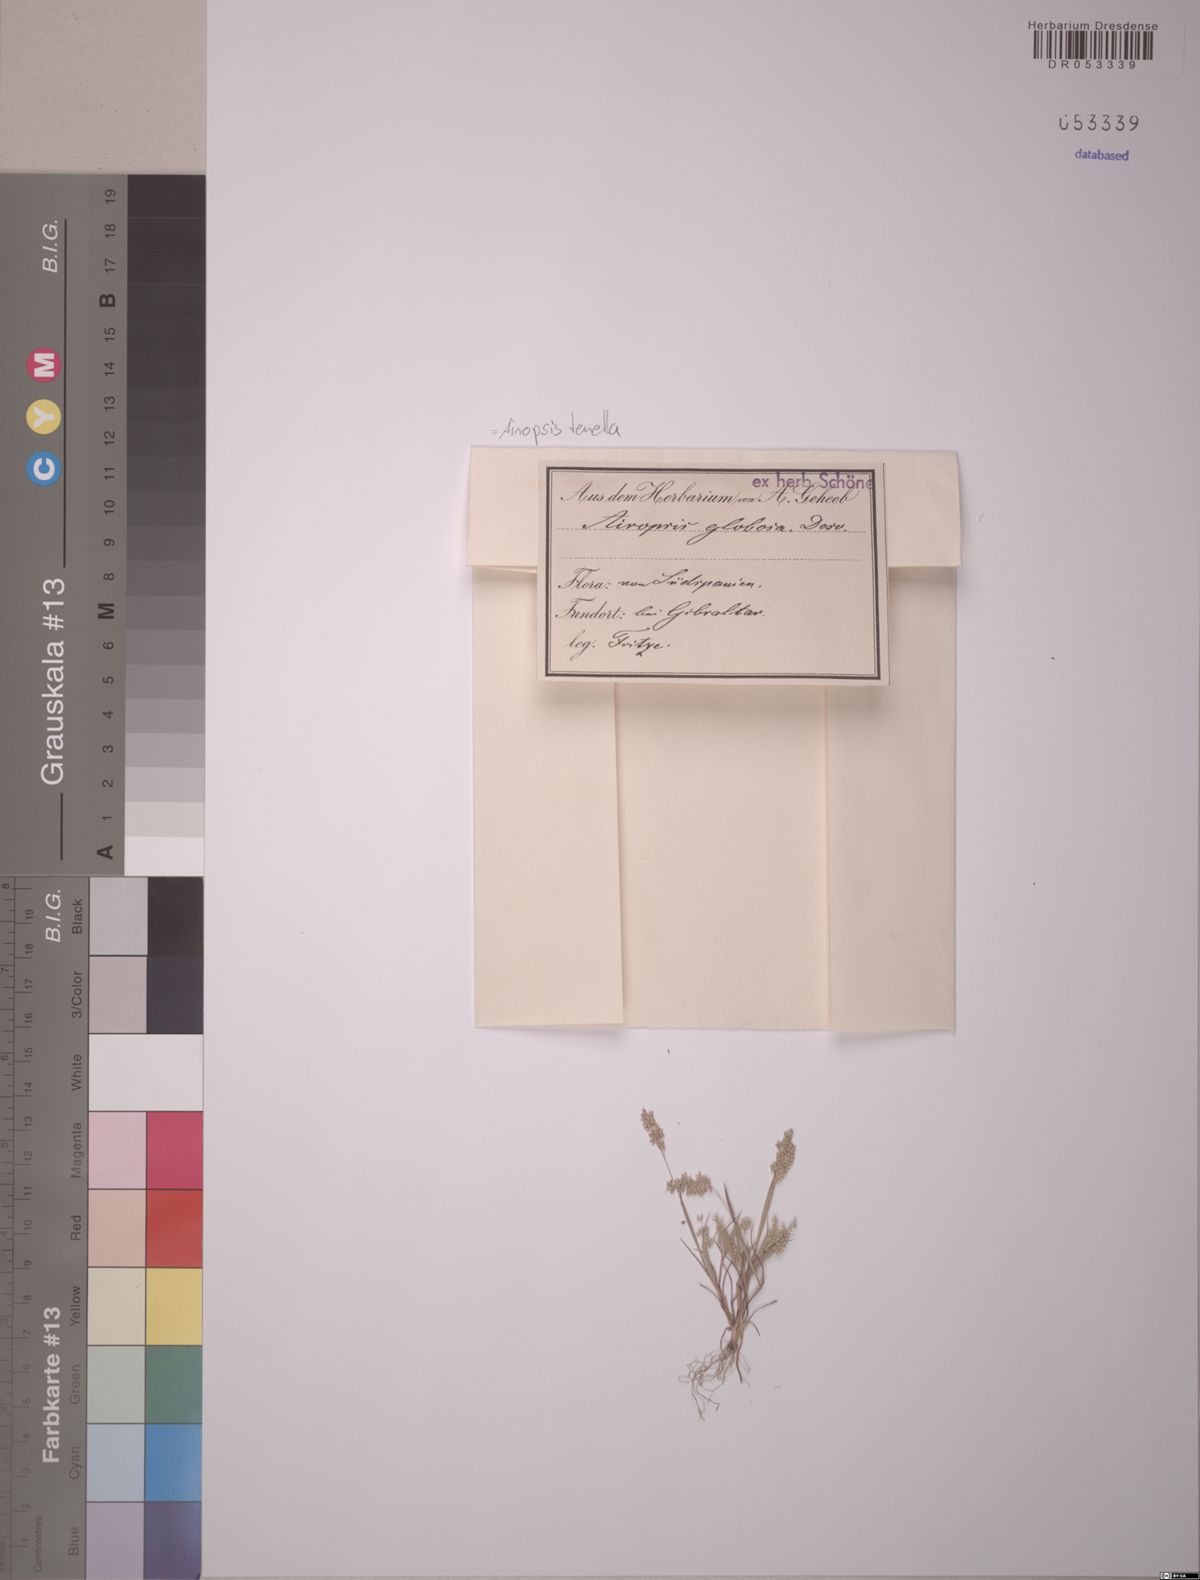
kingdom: Plantae
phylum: Tracheophyta
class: Liliopsida
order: Poales
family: Poaceae
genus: Airopsis
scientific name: Airopsis tenella
